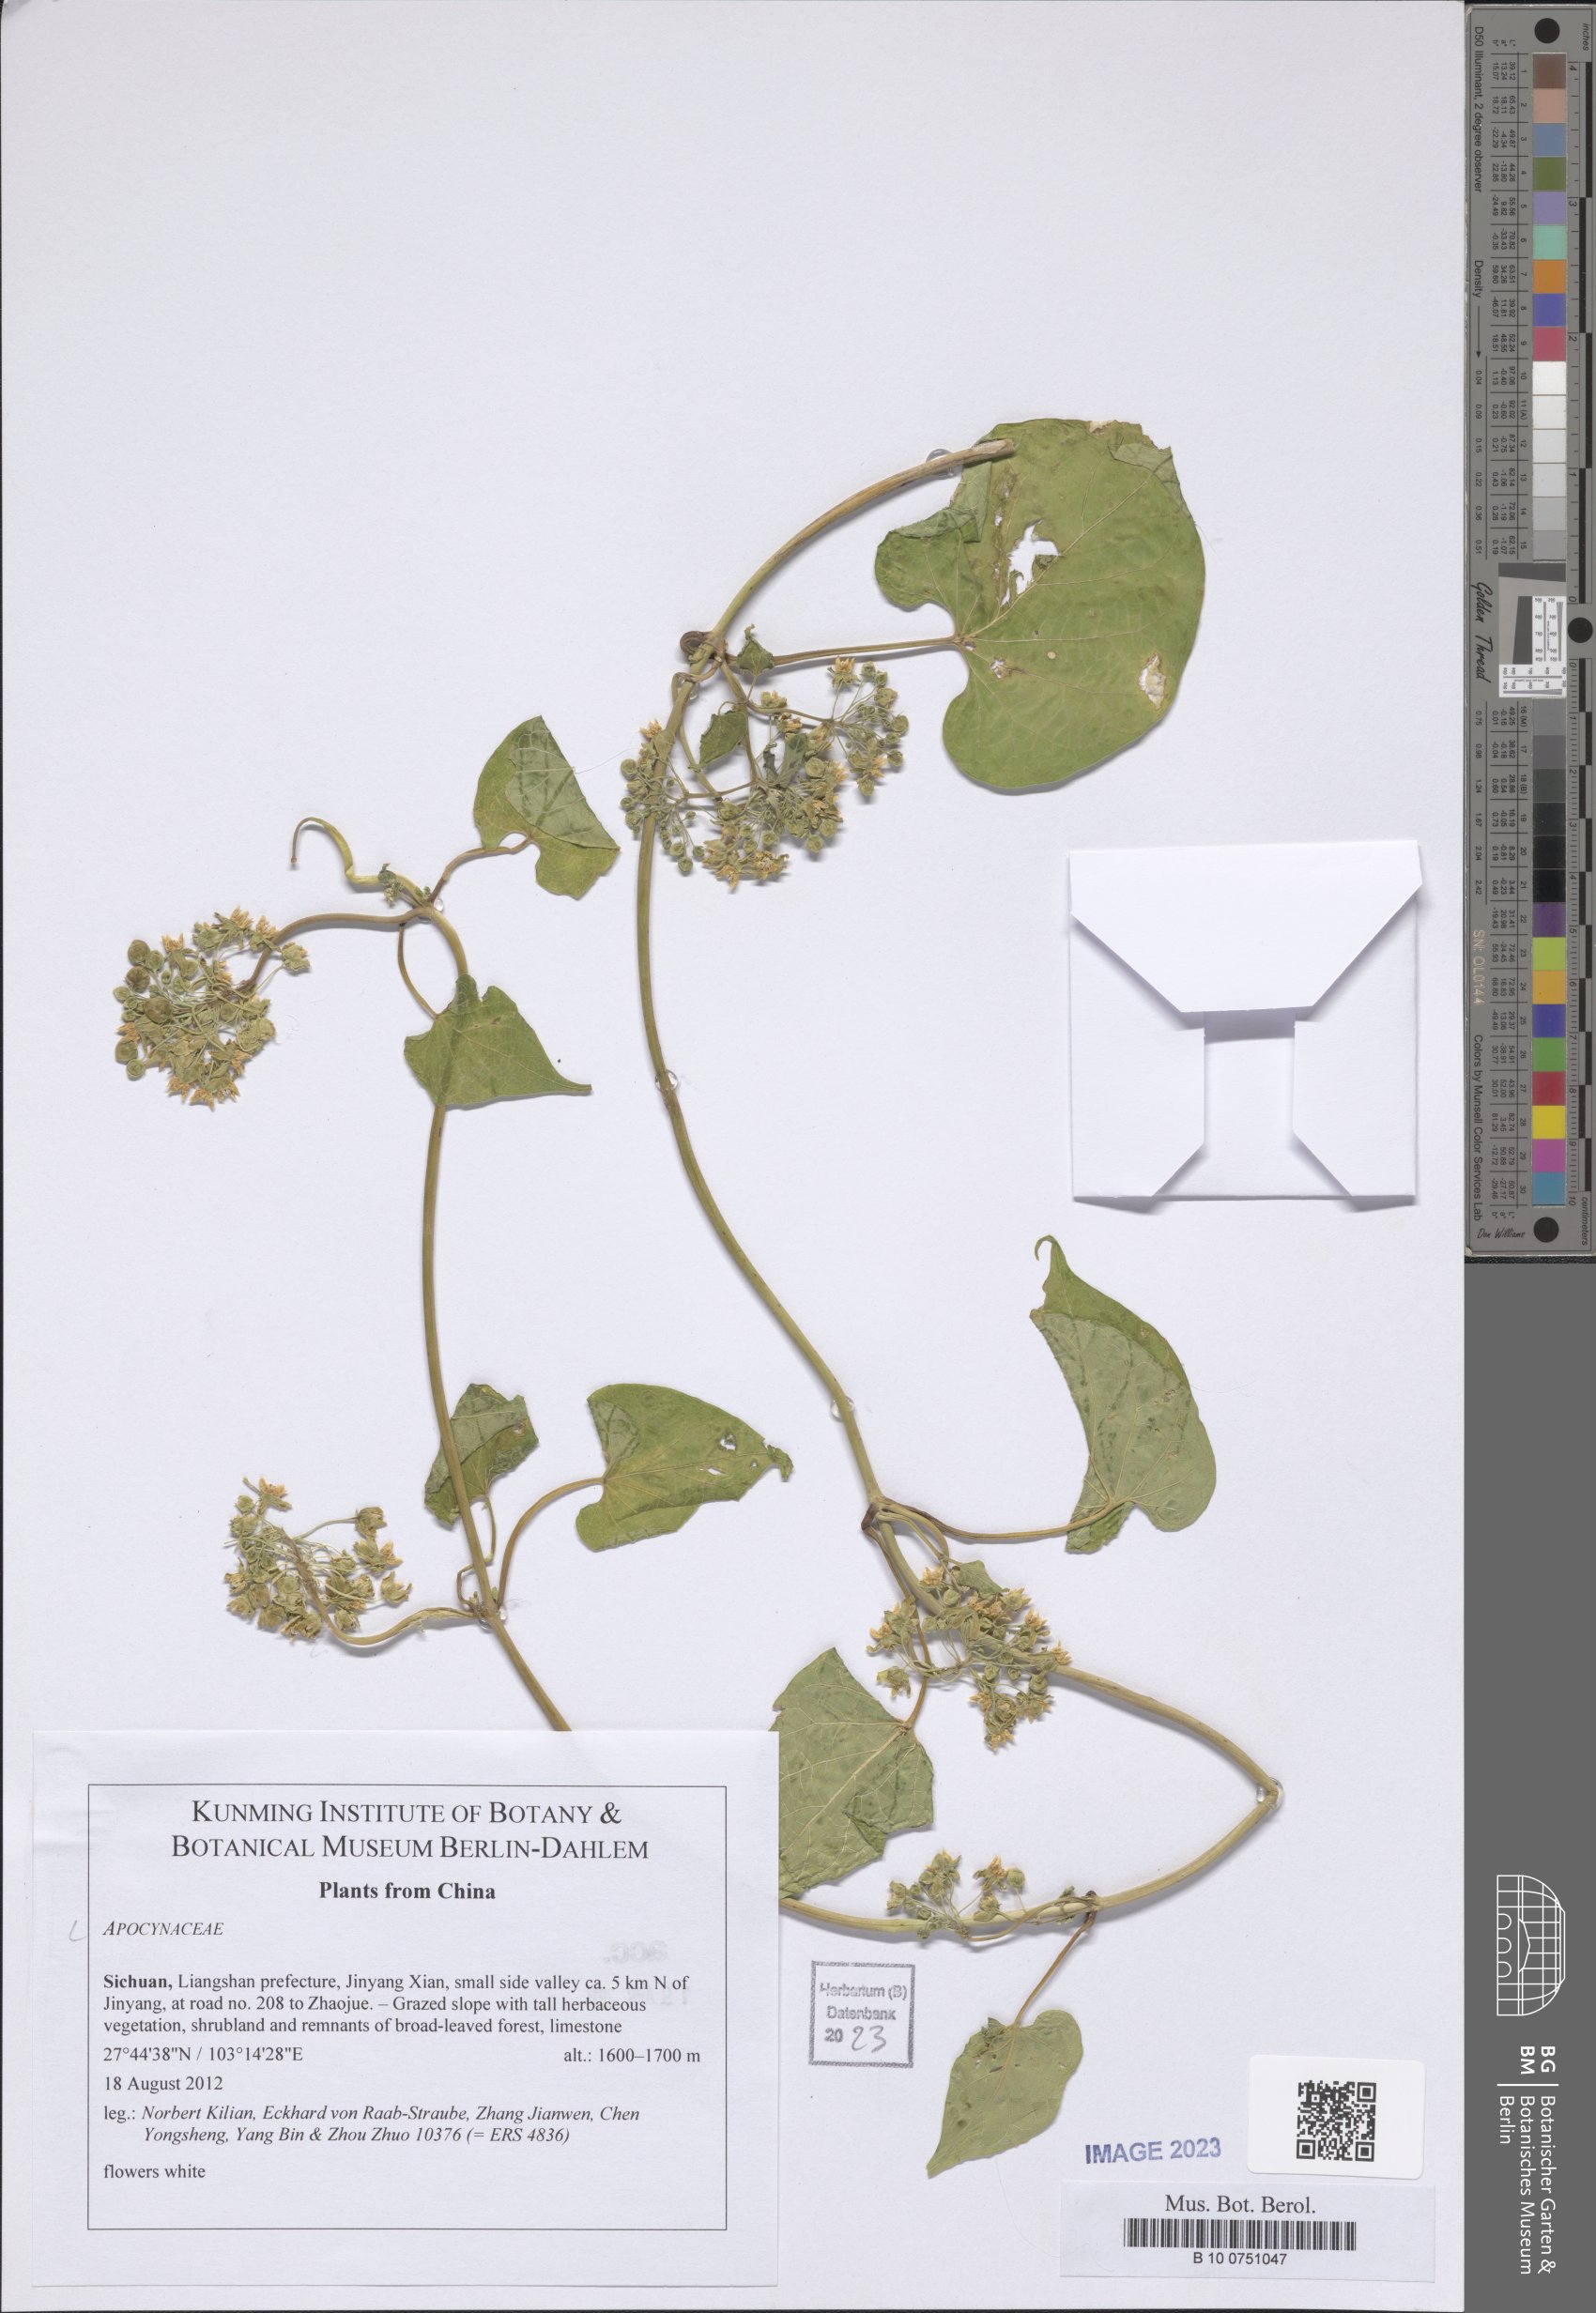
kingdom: Plantae
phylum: Tracheophyta
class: Magnoliopsida
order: Gentianales
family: Apocynaceae
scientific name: Apocynaceae
